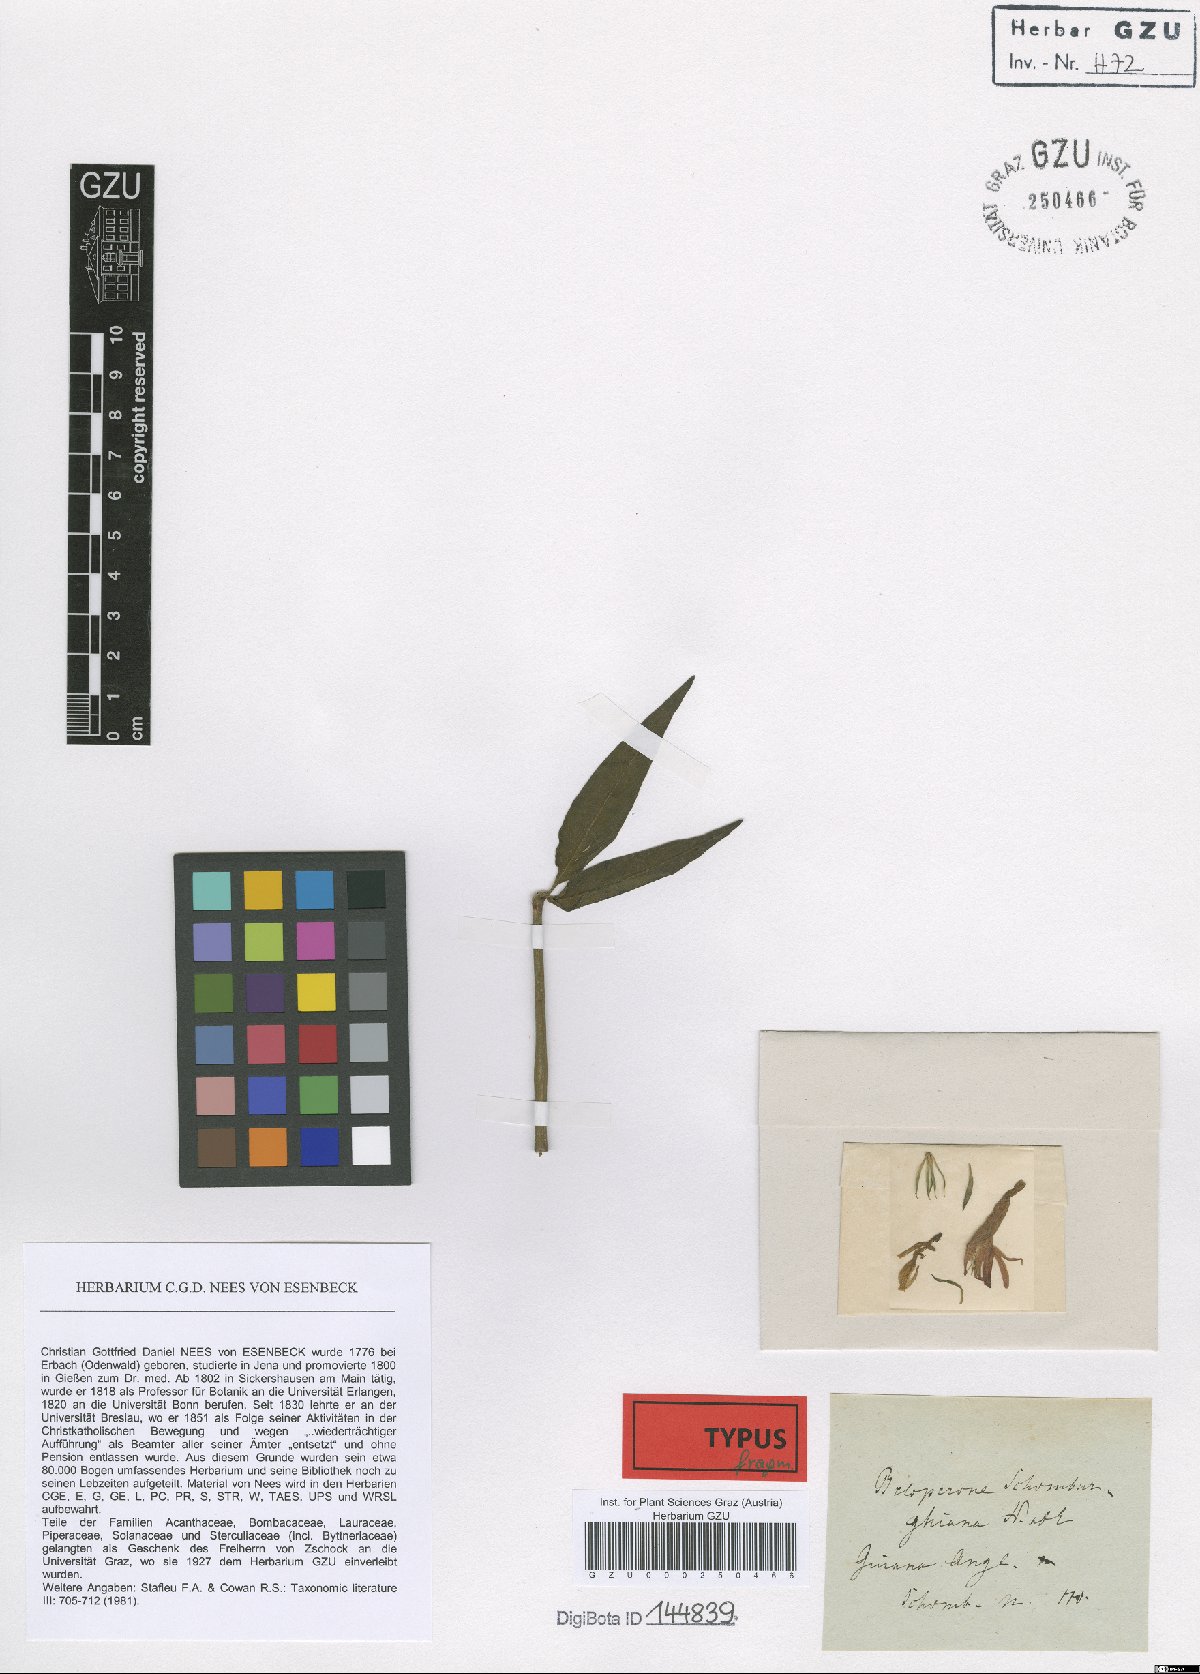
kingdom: Plantae
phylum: Tracheophyta
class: Magnoliopsida
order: Lamiales
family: Acanthaceae
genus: Justicia
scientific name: Justicia schomburgkiana
